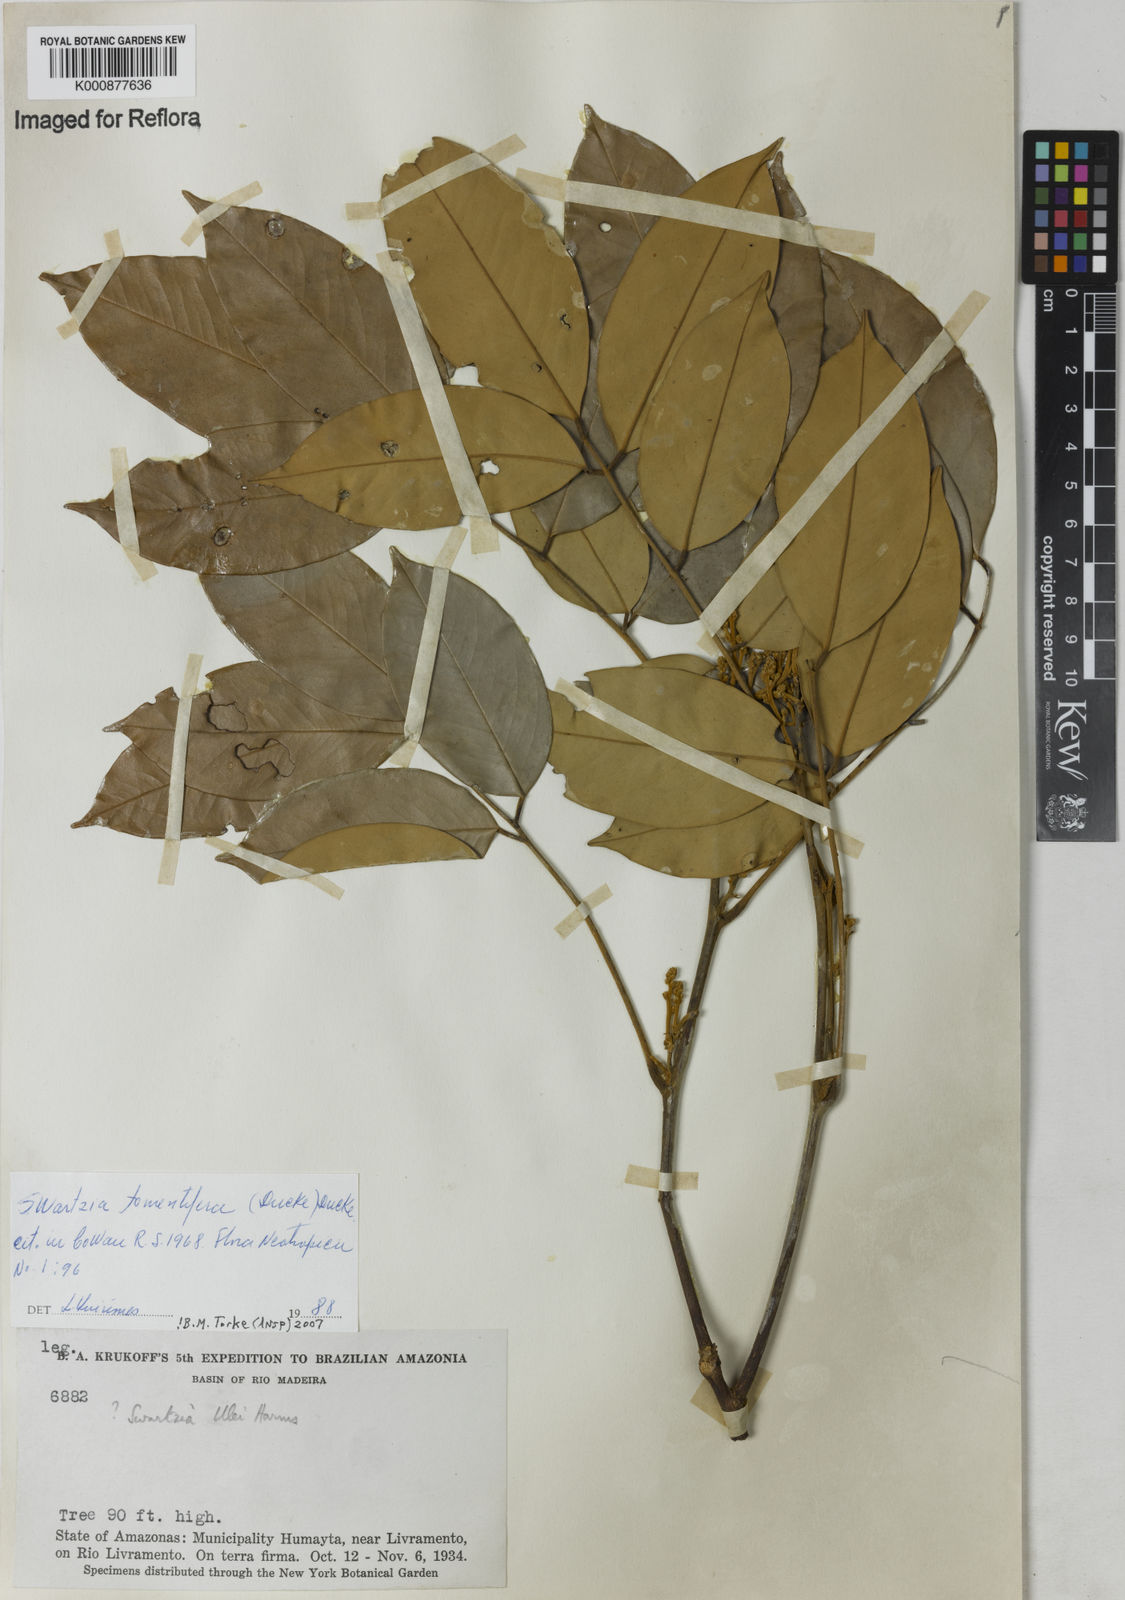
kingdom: Plantae
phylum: Tracheophyta
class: Magnoliopsida
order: Fabales
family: Fabaceae
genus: Swartzia
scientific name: Swartzia tomentifera
